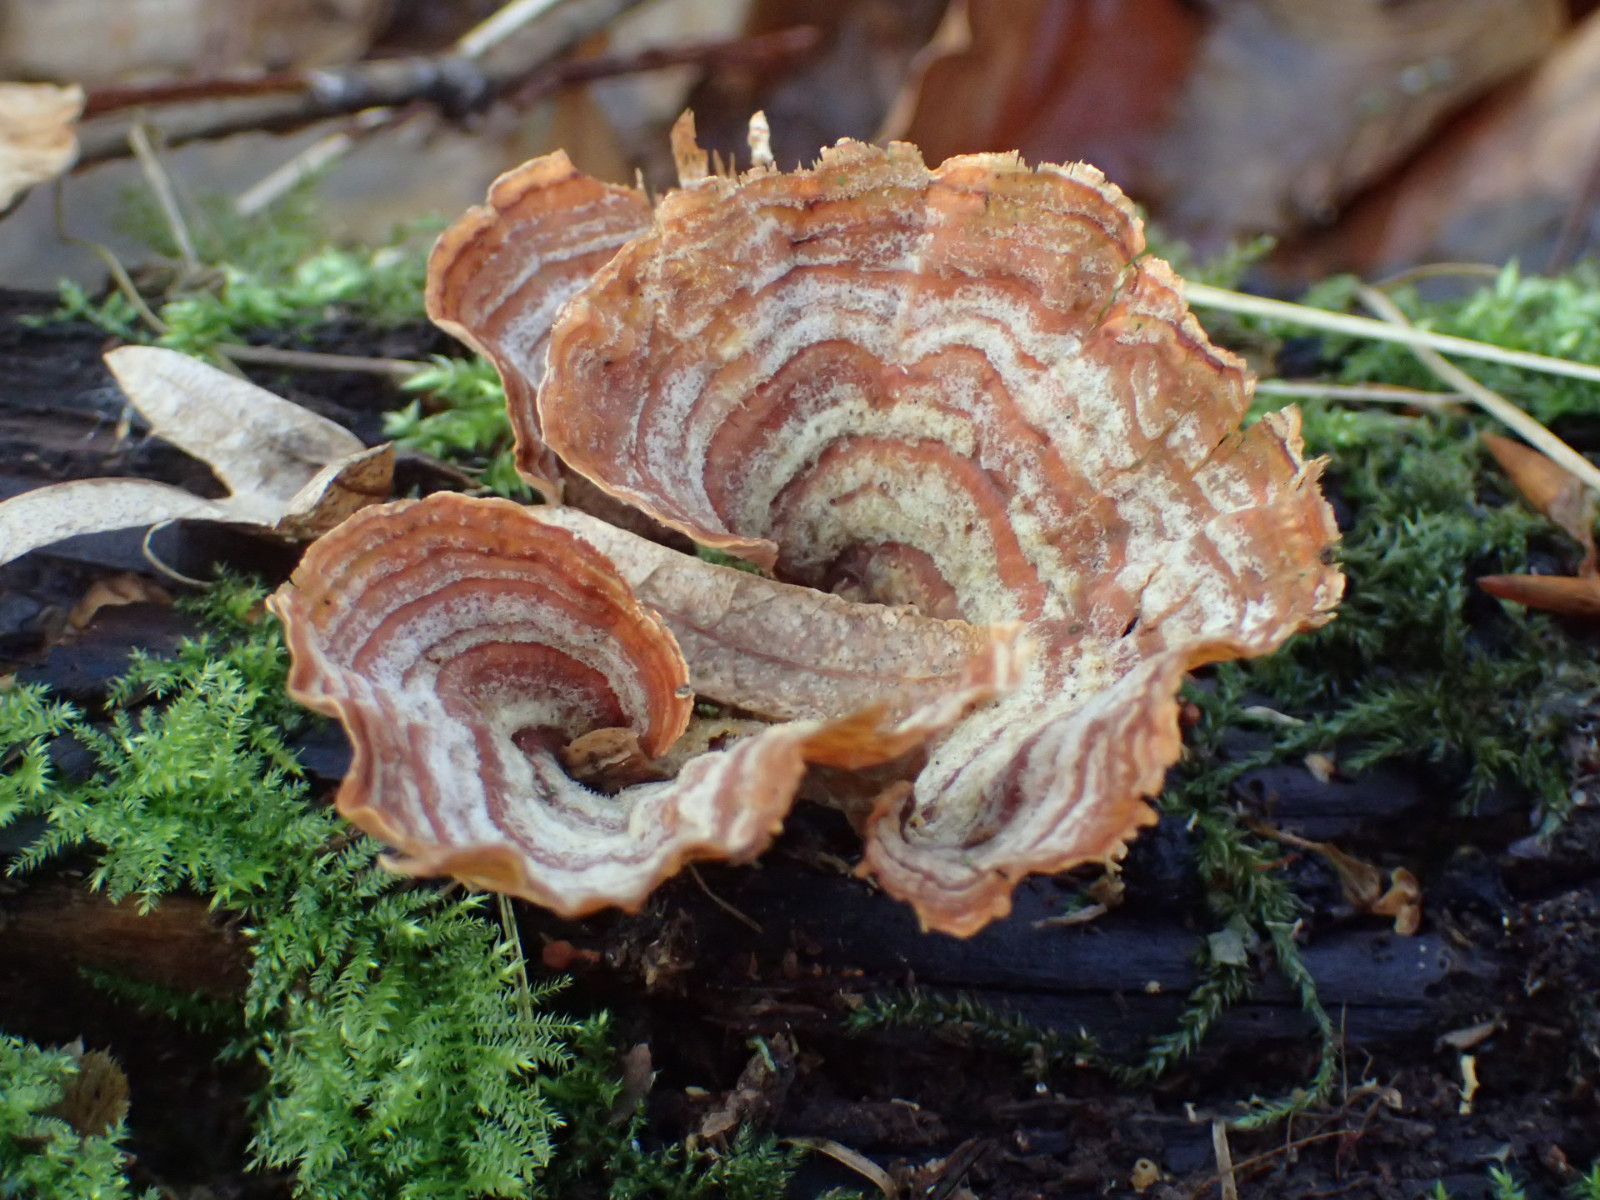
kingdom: Fungi
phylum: Basidiomycota
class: Agaricomycetes
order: Russulales
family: Stereaceae
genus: Stereum
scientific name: Stereum subtomentosum
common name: smuk lædersvamp
